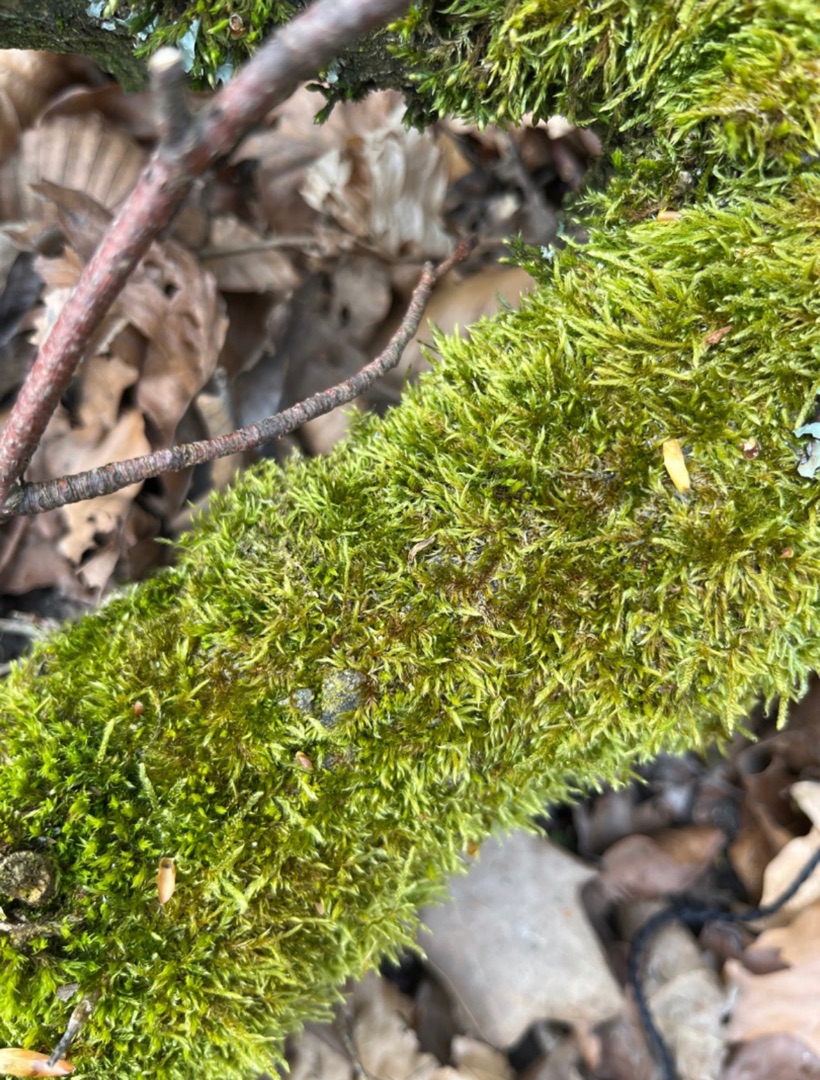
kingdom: Plantae
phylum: Bryophyta
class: Bryopsida
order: Hypnales
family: Hypnaceae
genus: Hypnum
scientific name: Hypnum cupressiforme
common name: Almindelig cypresmos
